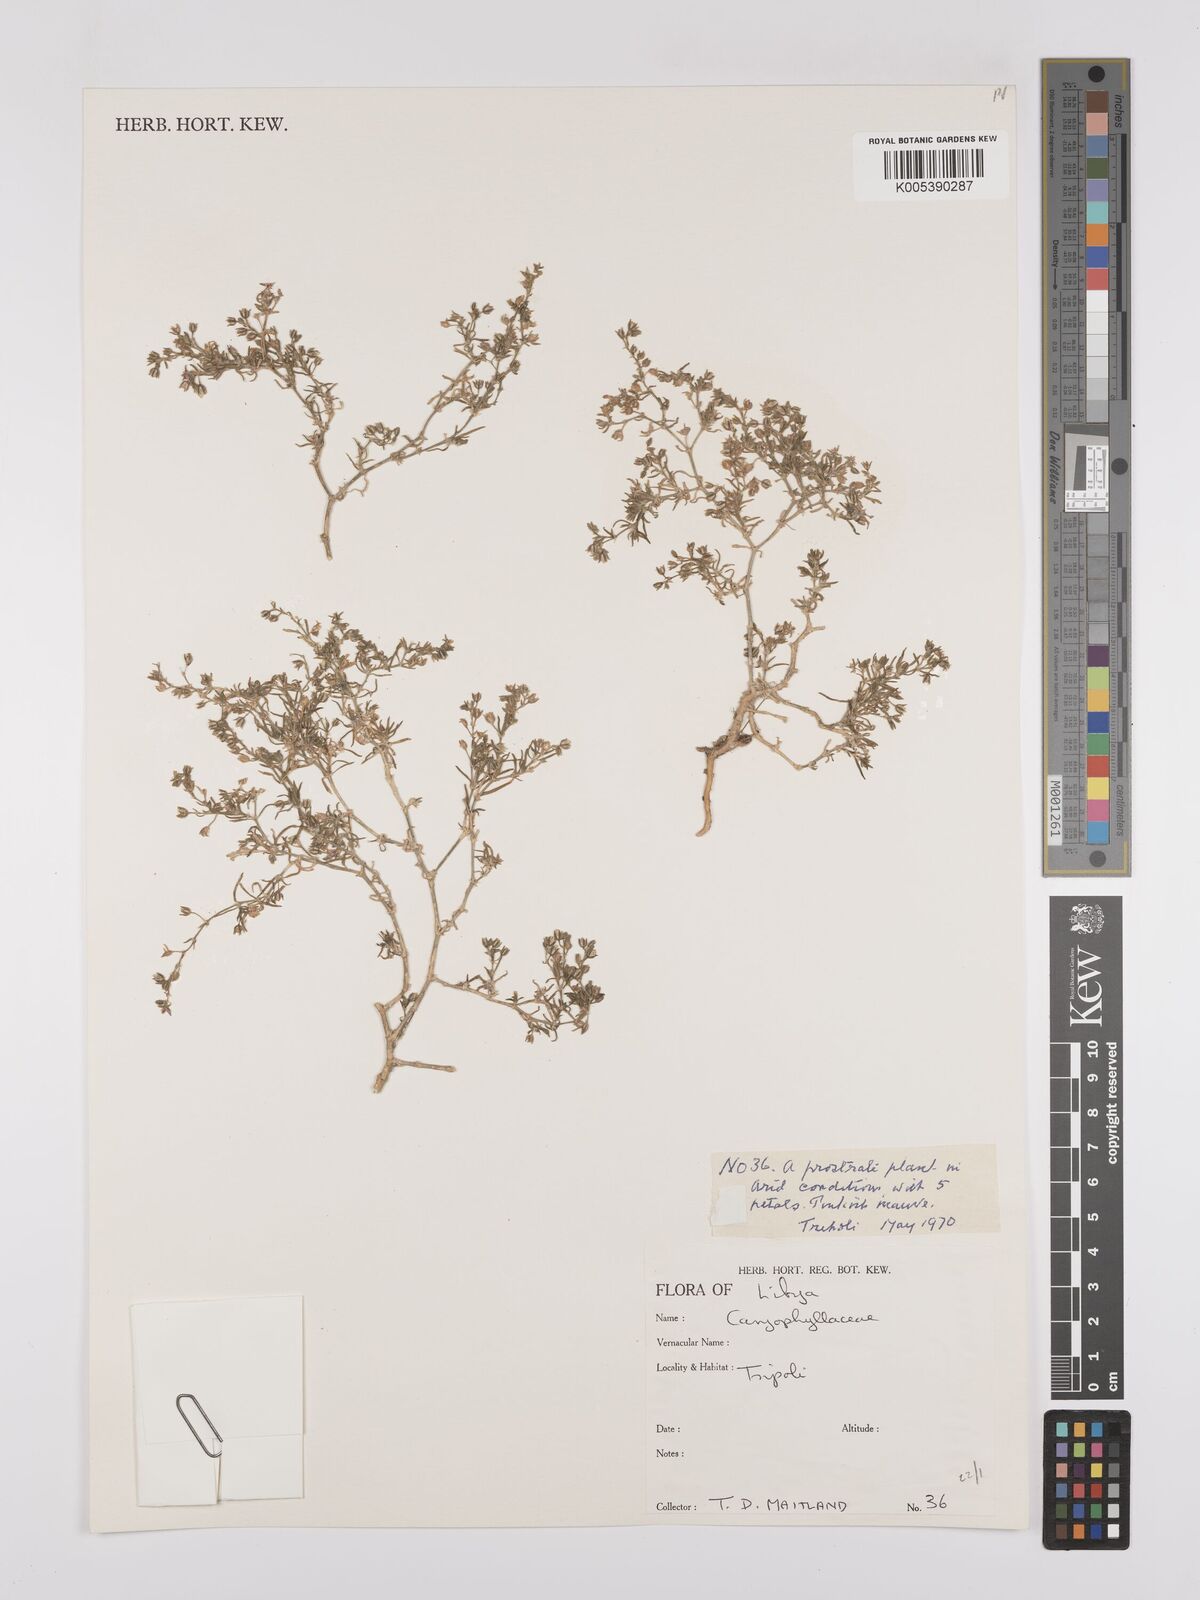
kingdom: Plantae
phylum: Tracheophyta
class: Magnoliopsida
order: Caryophyllales
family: Caryophyllaceae
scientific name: Caryophyllaceae
